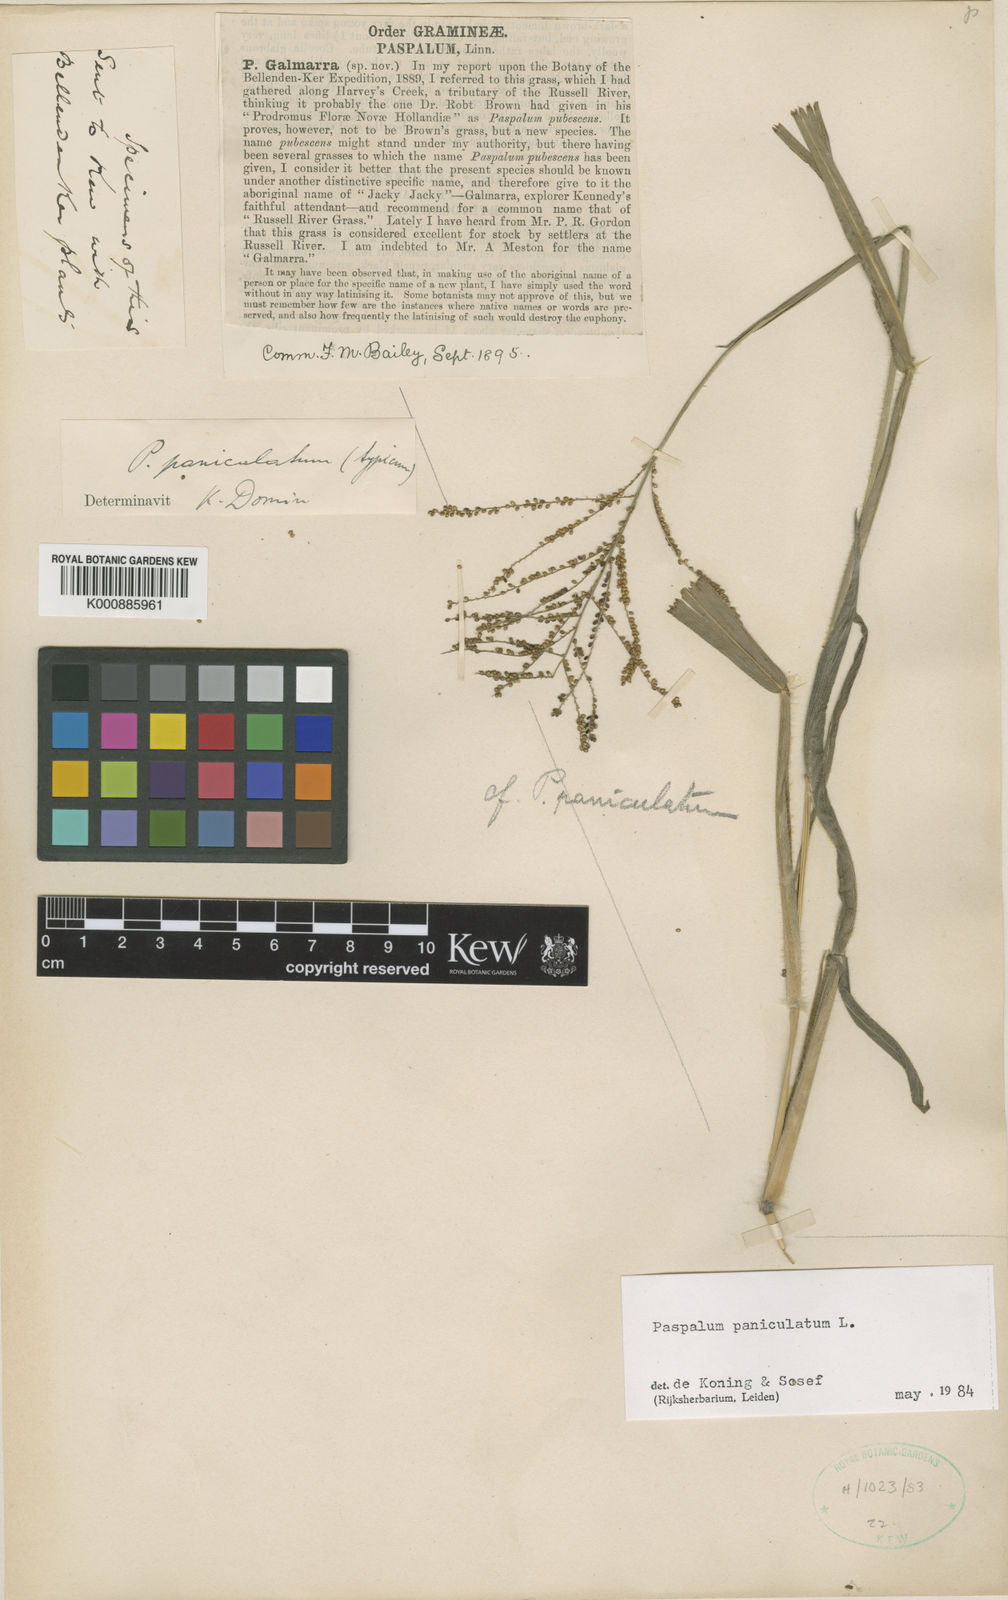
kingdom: Plantae
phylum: Tracheophyta
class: Liliopsida
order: Poales
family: Poaceae
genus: Paspalum
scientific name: Paspalum paniculatum
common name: Arrocillo
